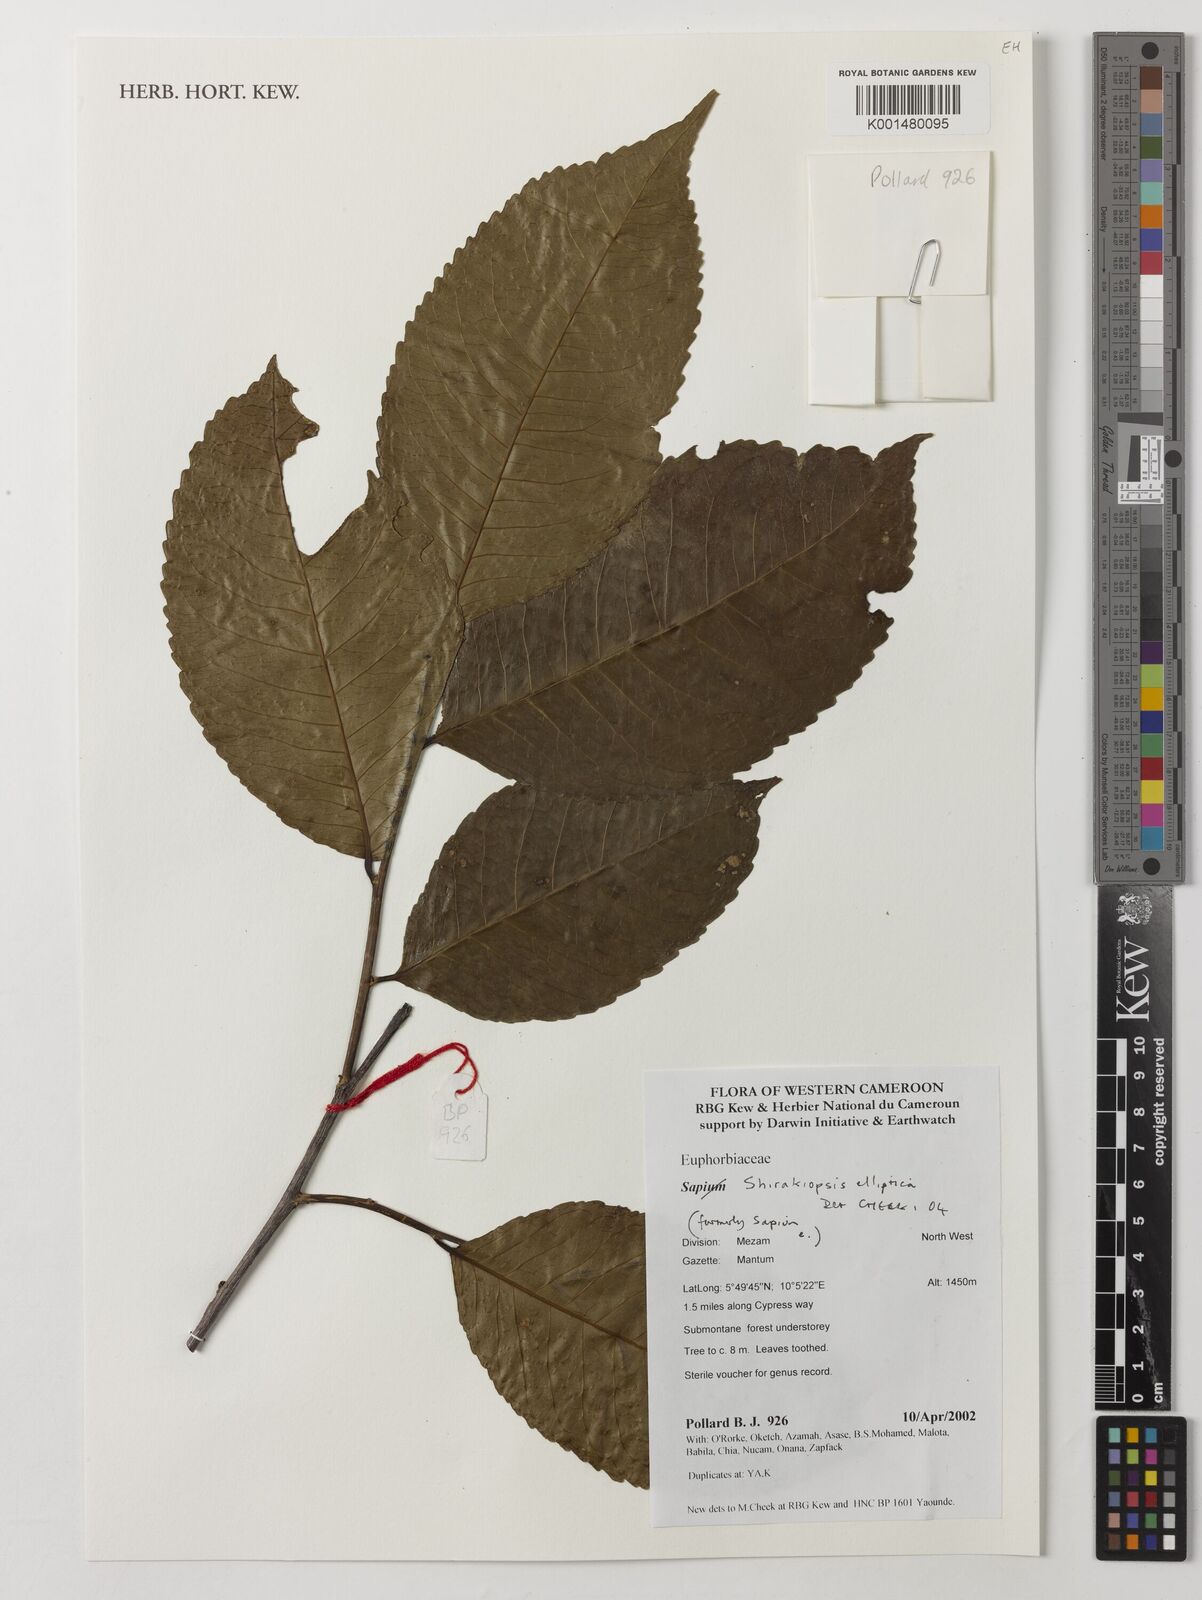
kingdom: Plantae
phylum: Tracheophyta
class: Magnoliopsida
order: Malpighiales
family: Euphorbiaceae
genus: Shirakiopsis
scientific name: Shirakiopsis elliptica
